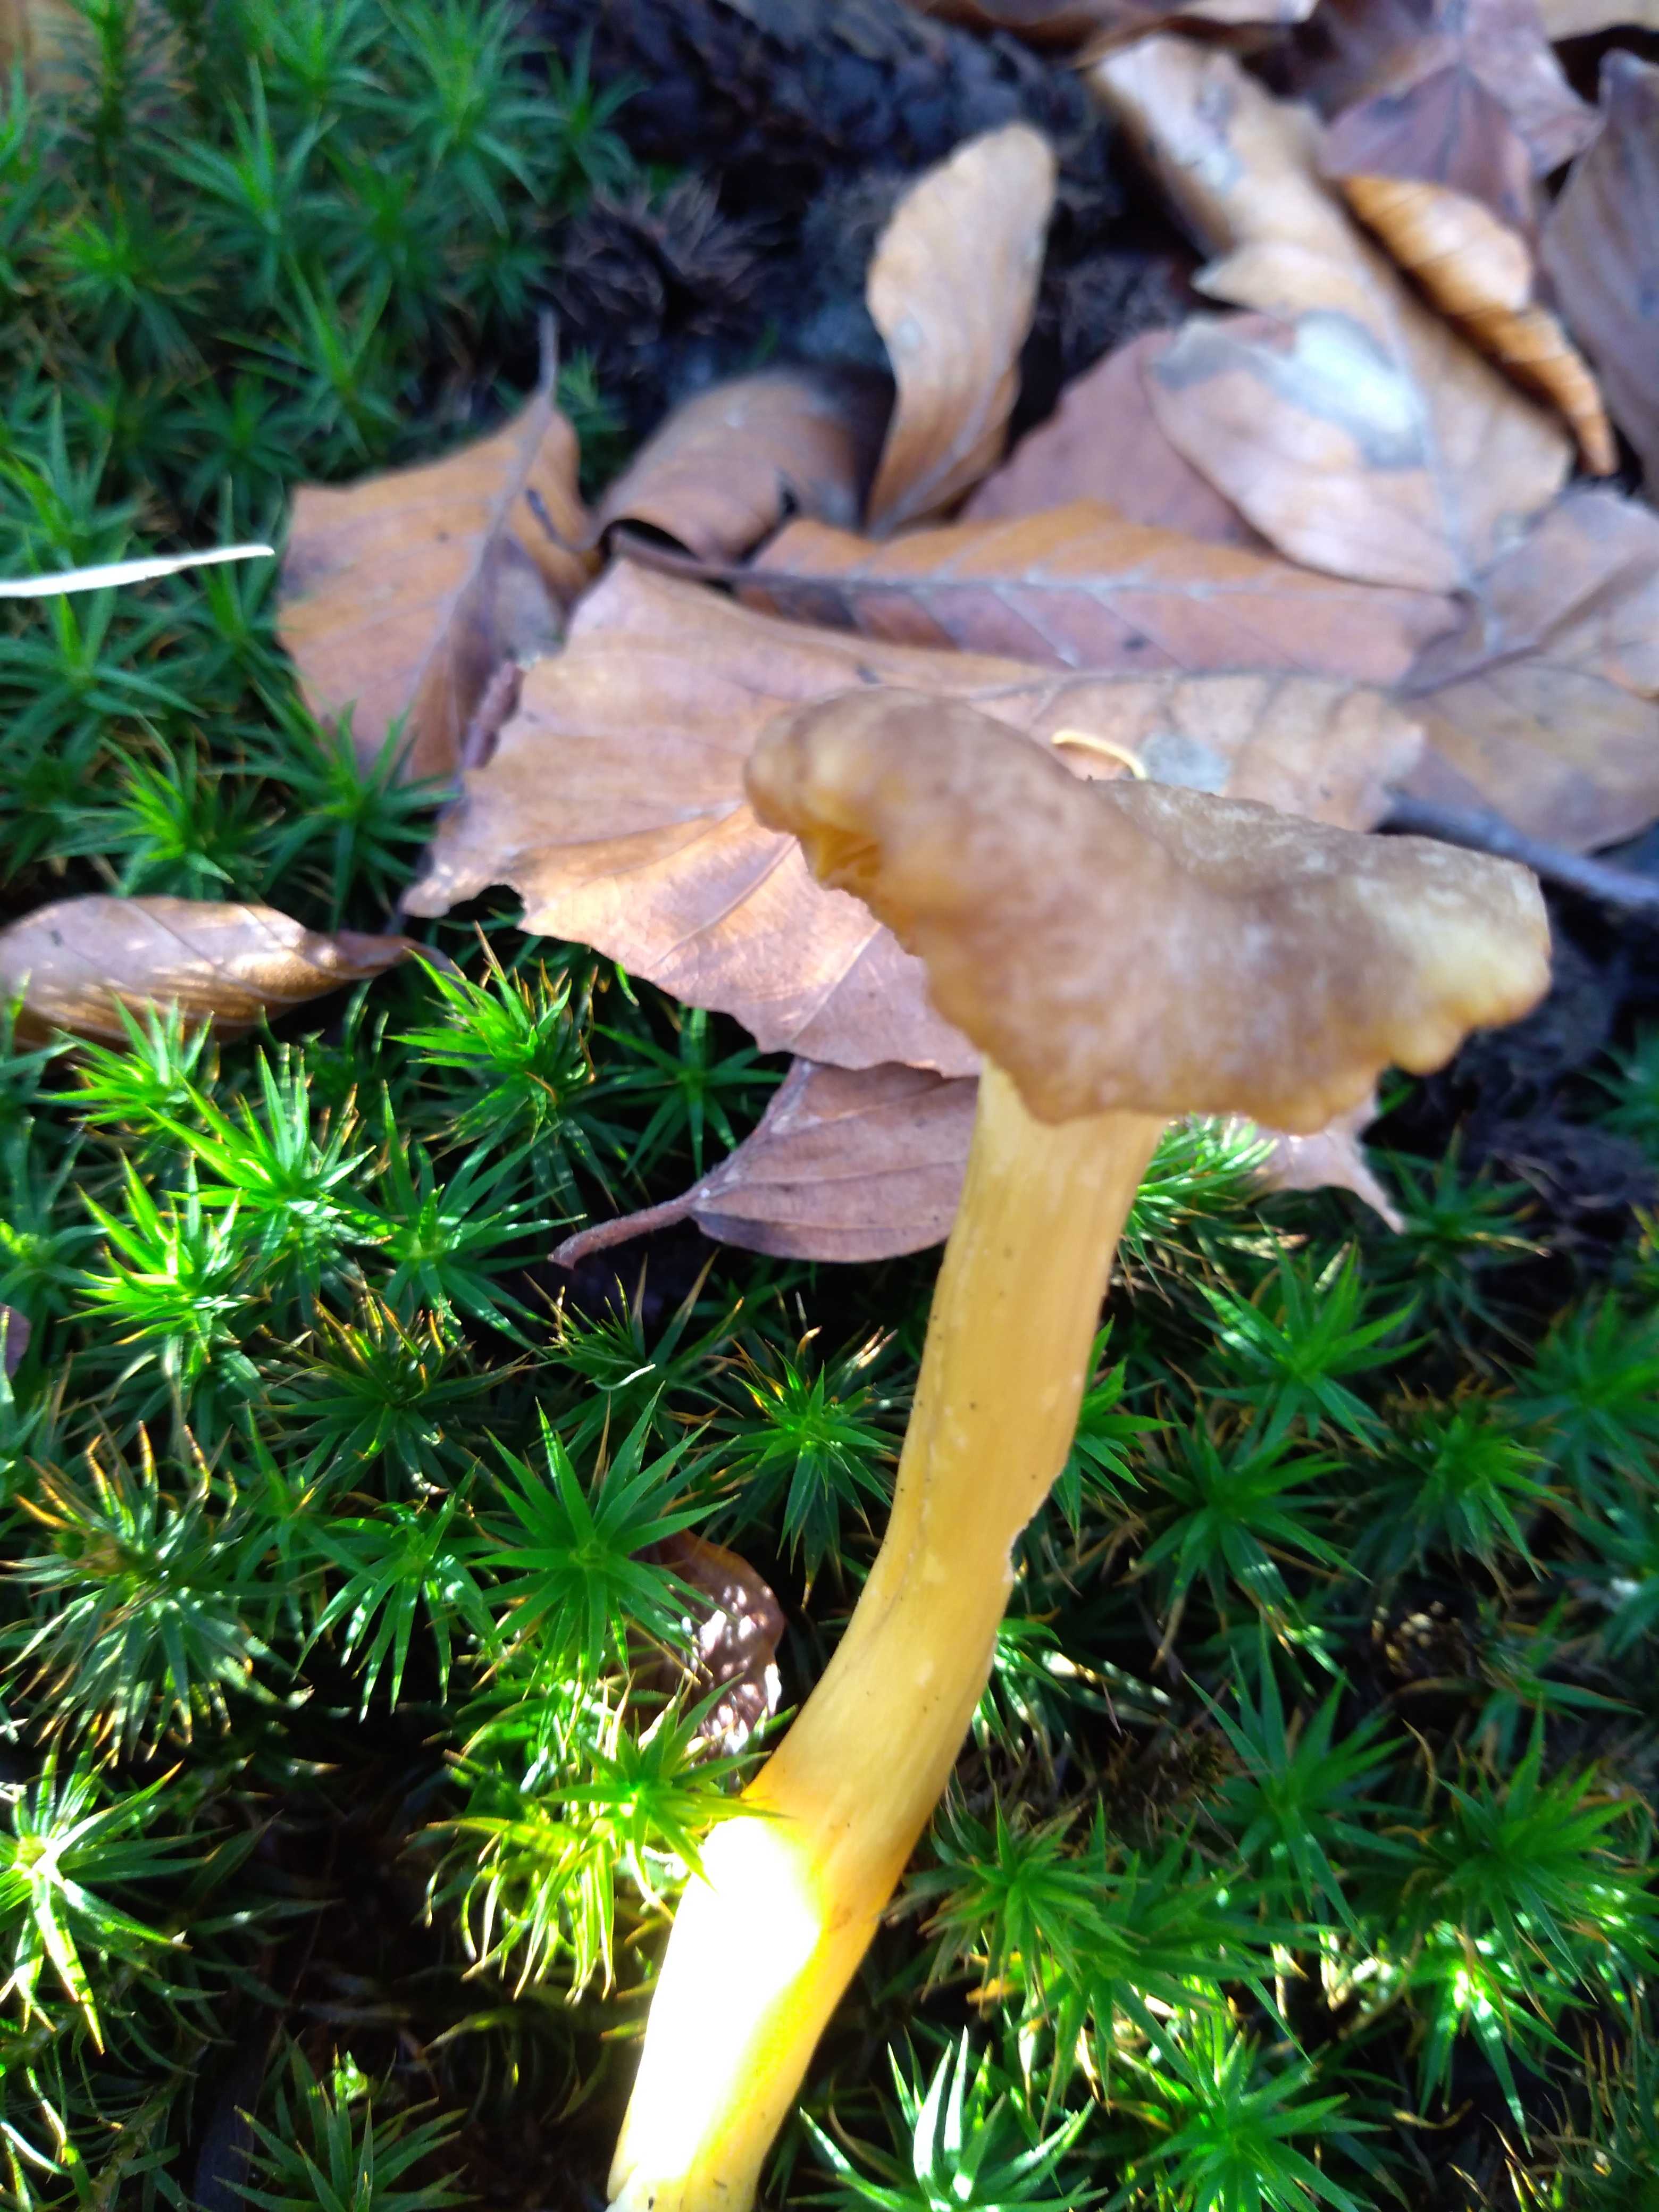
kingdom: Fungi
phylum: Basidiomycota
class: Agaricomycetes
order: Cantharellales
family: Hydnaceae
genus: Craterellus
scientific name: Craterellus tubaeformis
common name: tragt-kantarel
